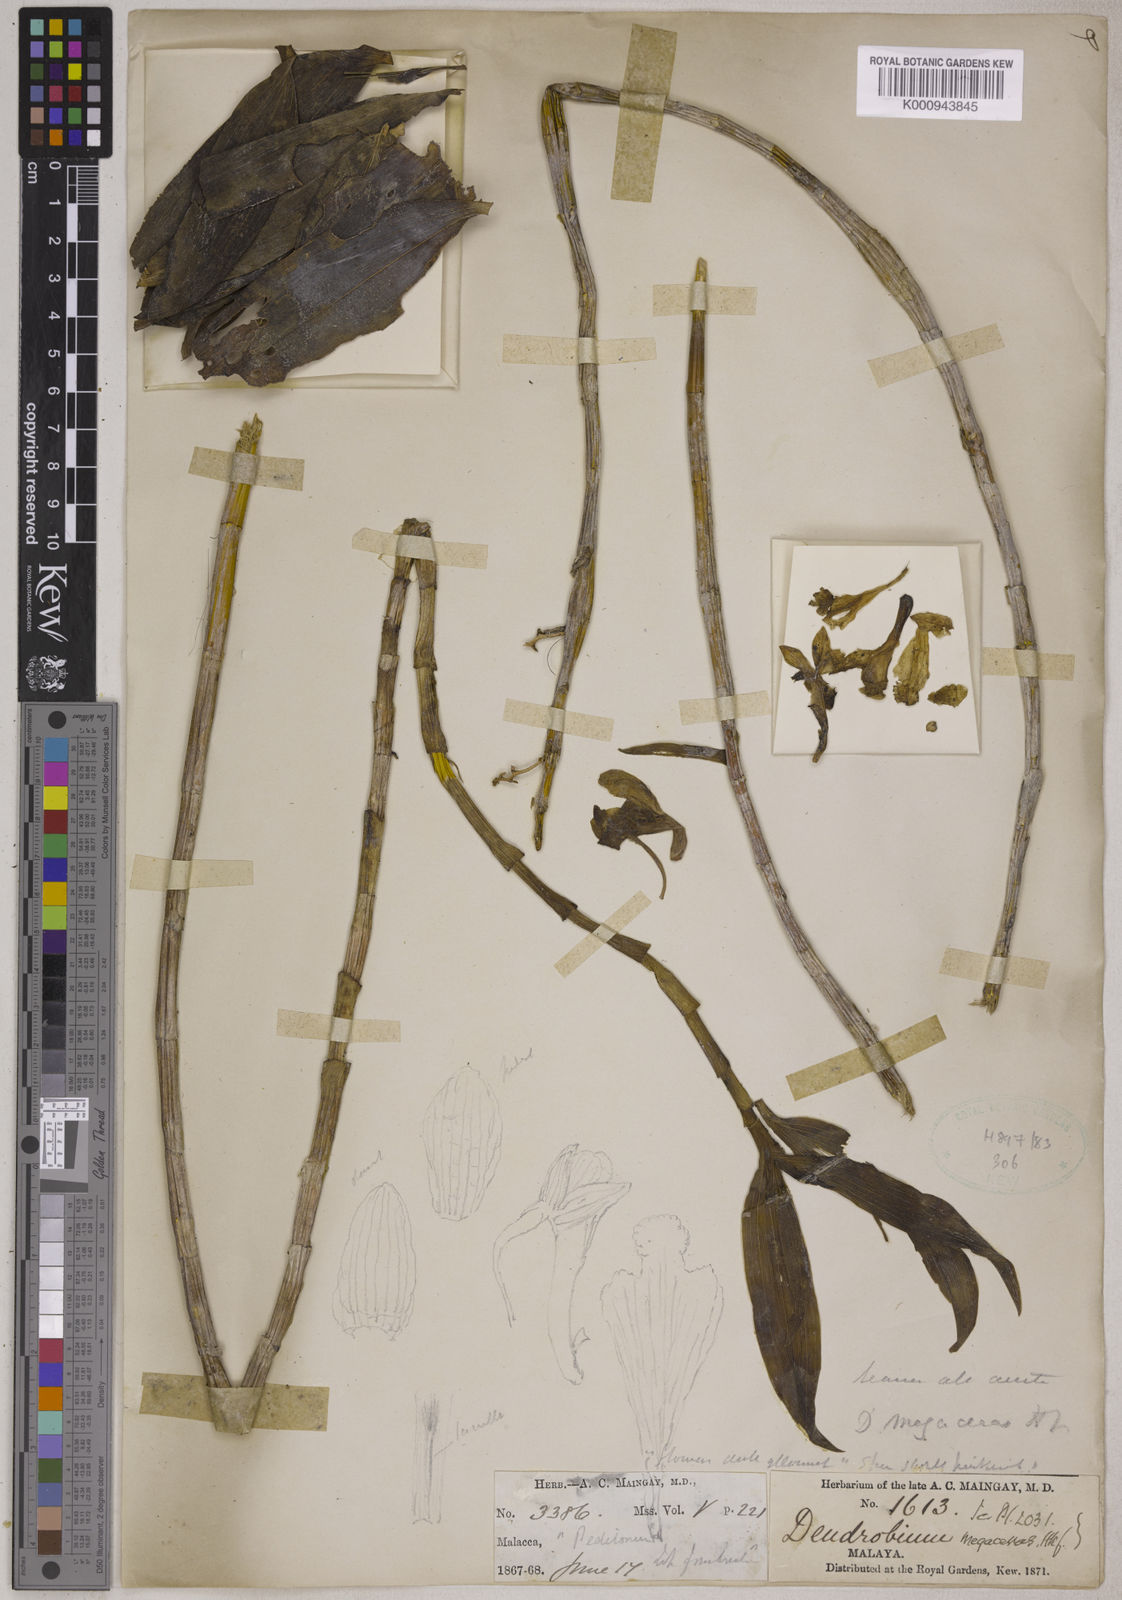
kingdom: Plantae
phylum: Tracheophyta
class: Liliopsida
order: Asparagales
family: Orchidaceae
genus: Dendrobium
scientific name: Dendrobium megaceras
